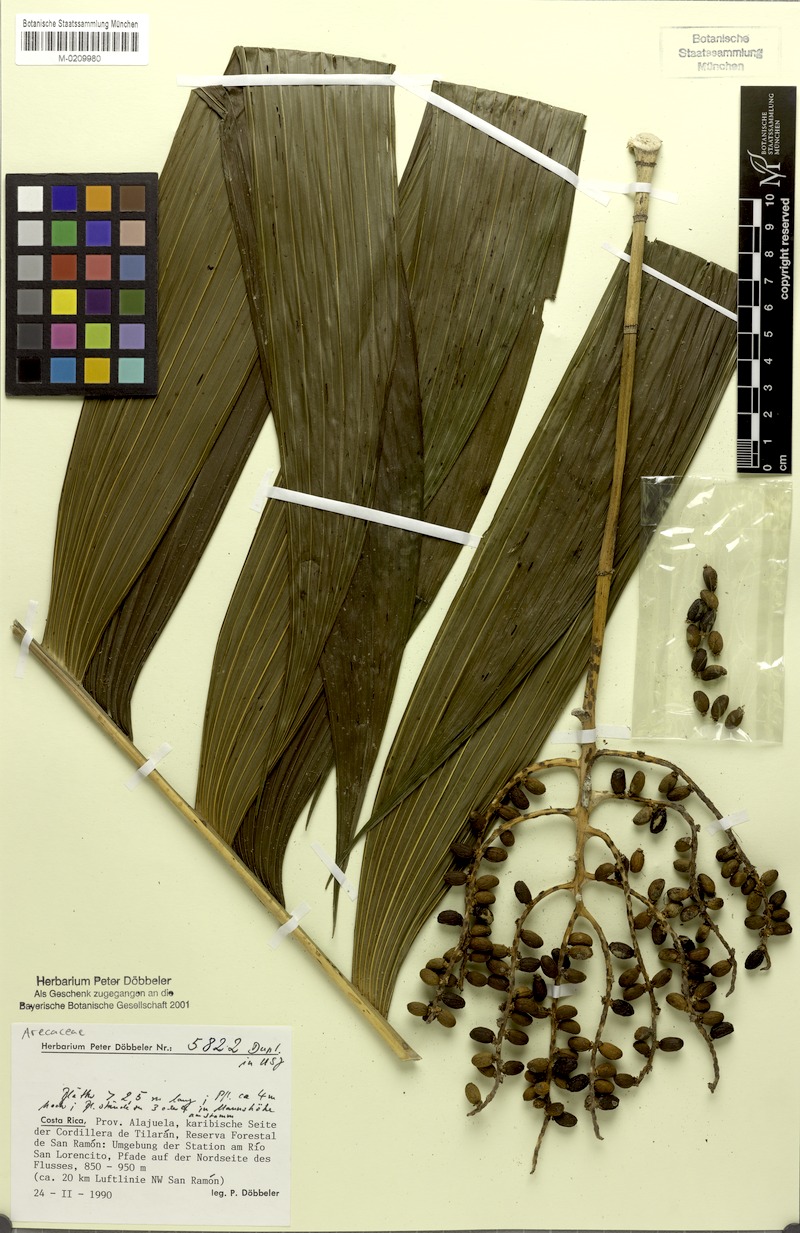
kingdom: Plantae
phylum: Tracheophyta
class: Liliopsida
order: Arecales
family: Arecaceae
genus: Chamaedorea
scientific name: Chamaedorea pinnatifrons
